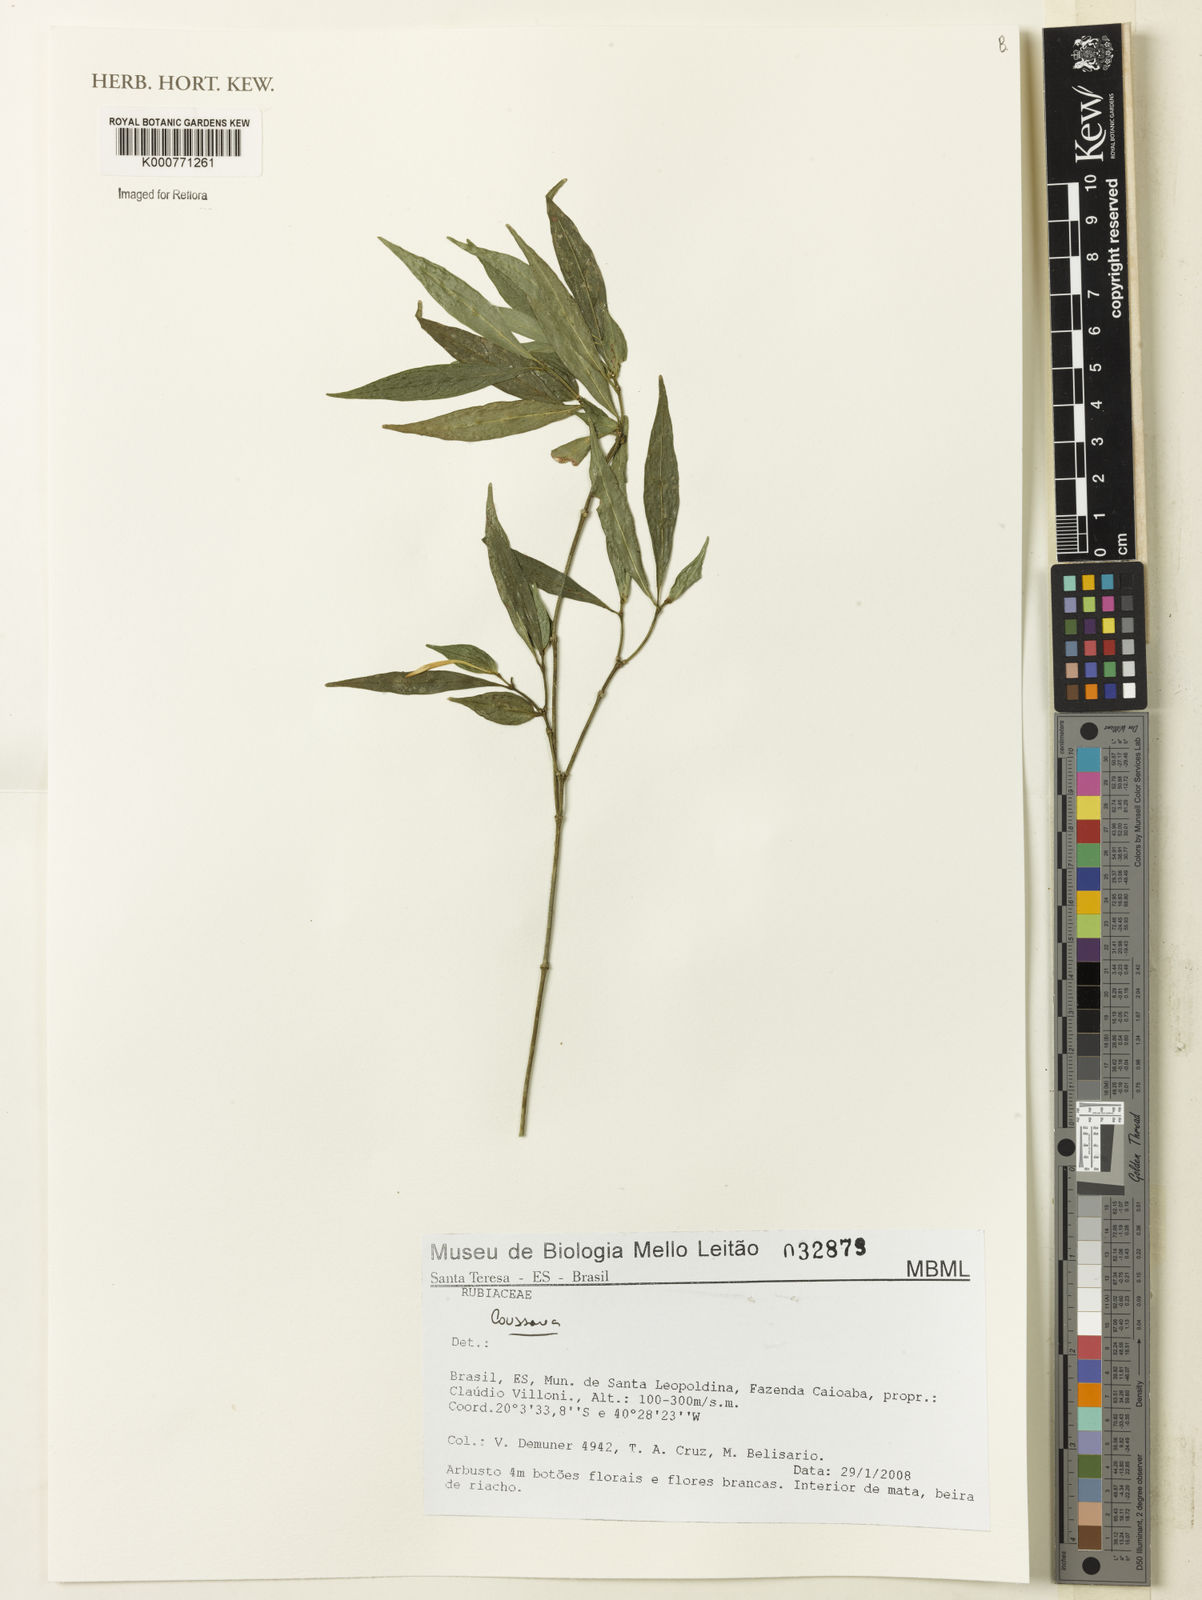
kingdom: Plantae
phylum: Tracheophyta
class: Magnoliopsida
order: Gentianales
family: Rubiaceae
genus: Coussarea
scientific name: Coussarea
